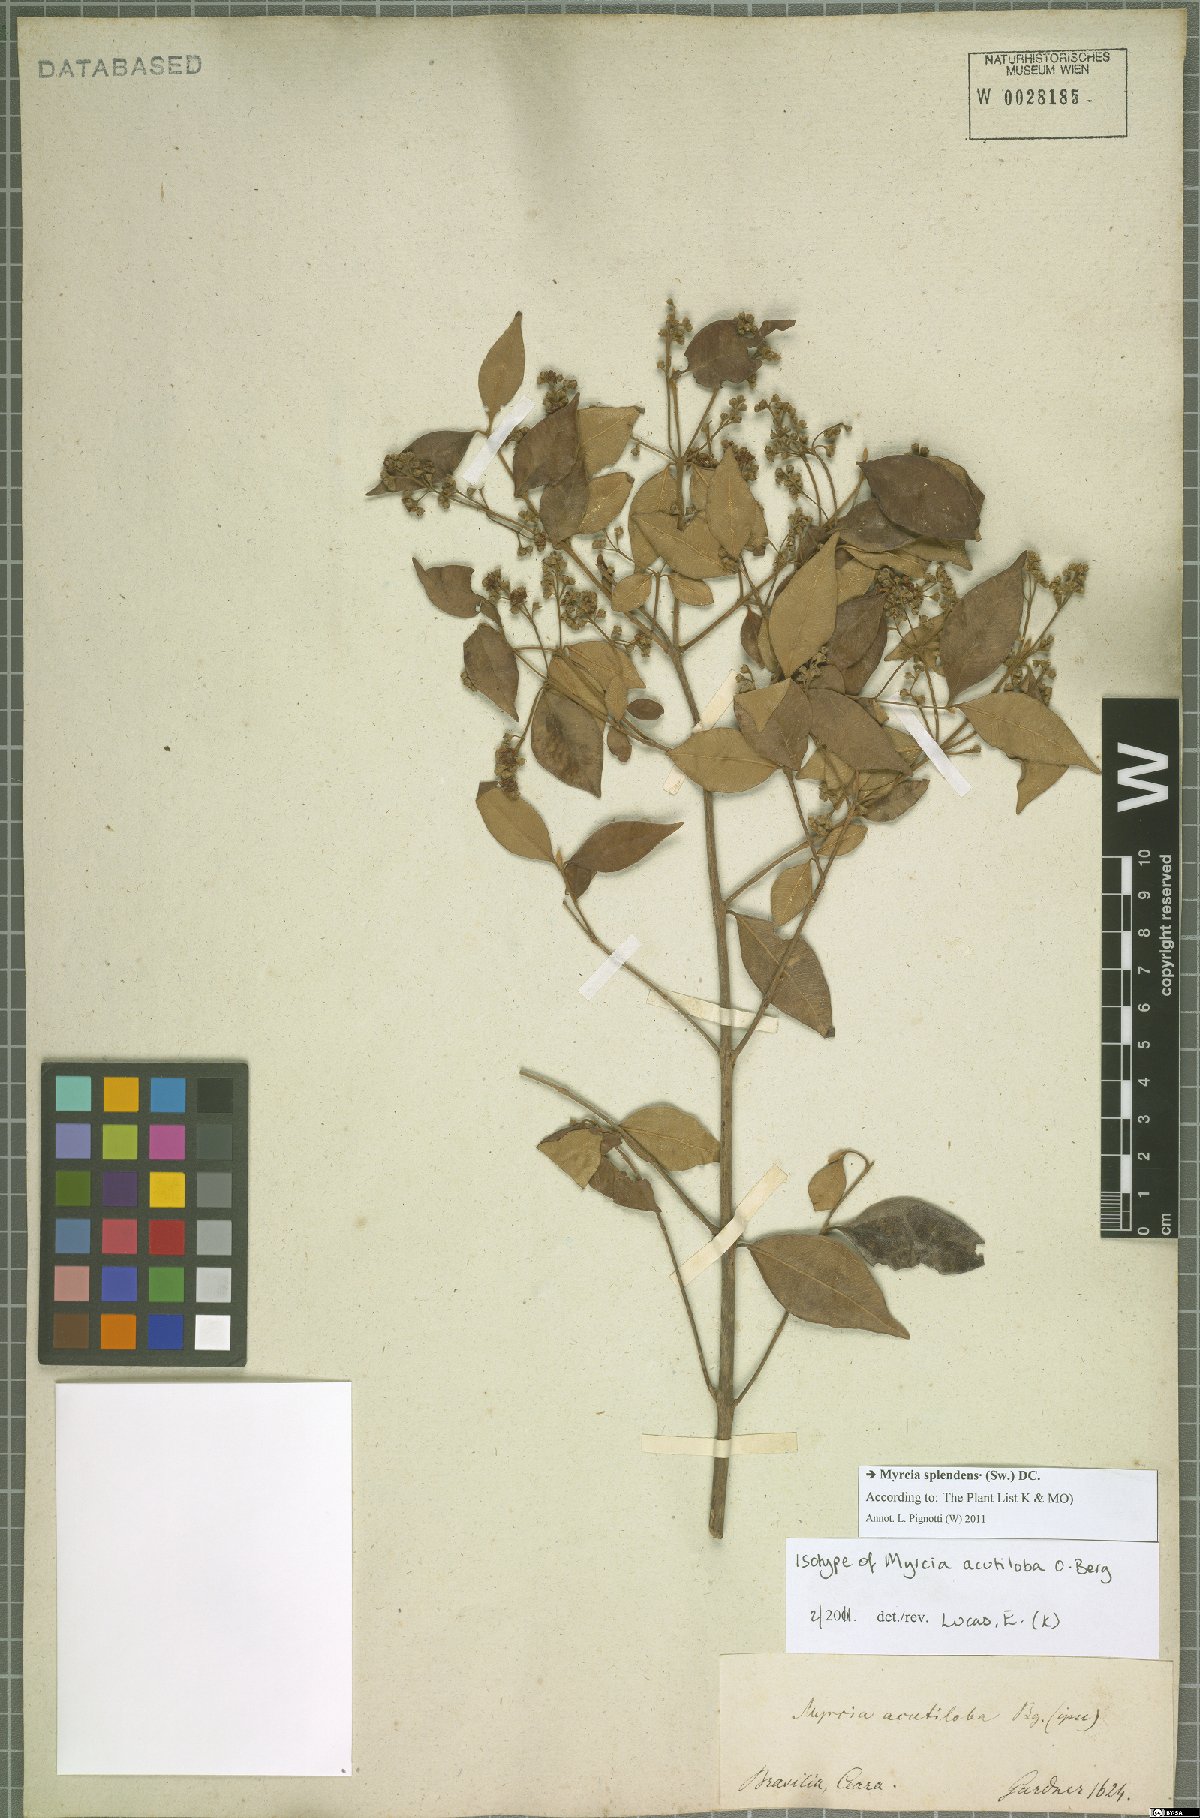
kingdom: Plantae
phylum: Tracheophyta
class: Magnoliopsida
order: Myrtales
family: Myrtaceae
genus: Myrcia
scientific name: Myrcia splendens
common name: Surinam cherry
